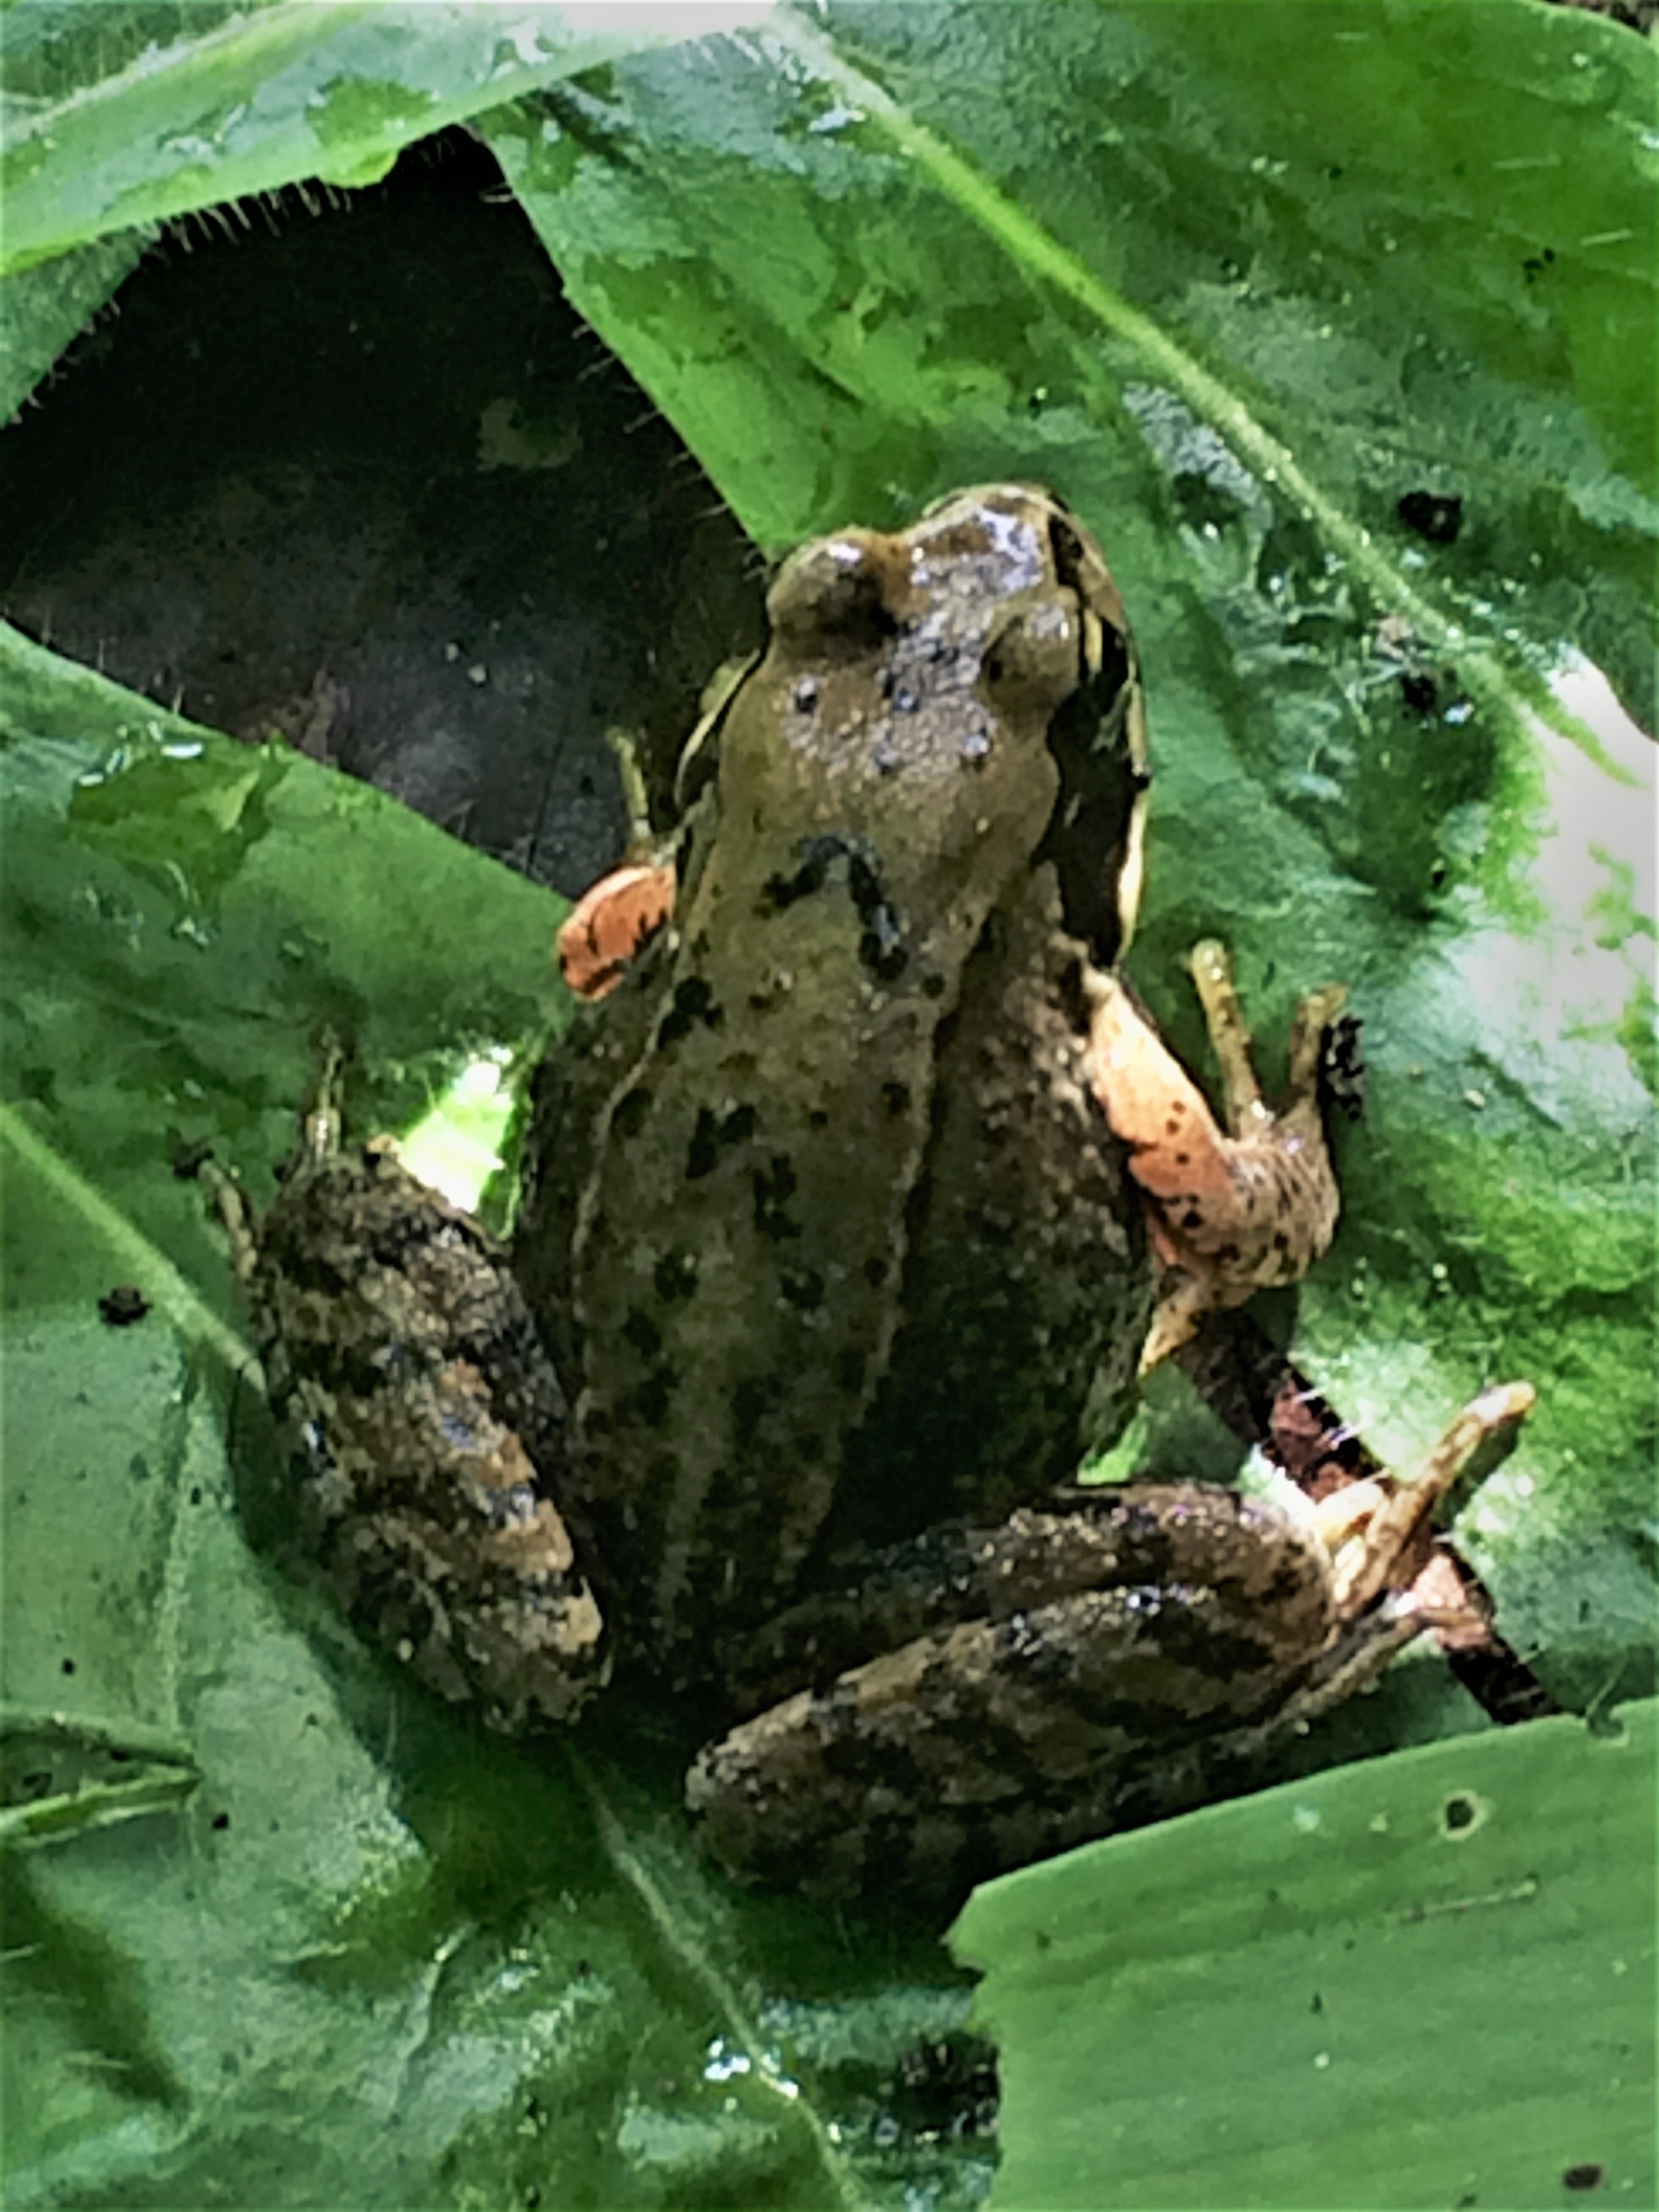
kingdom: Animalia
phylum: Chordata
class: Amphibia
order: Anura
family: Ranidae
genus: Rana
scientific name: Rana temporaria
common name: Butsnudet frø
